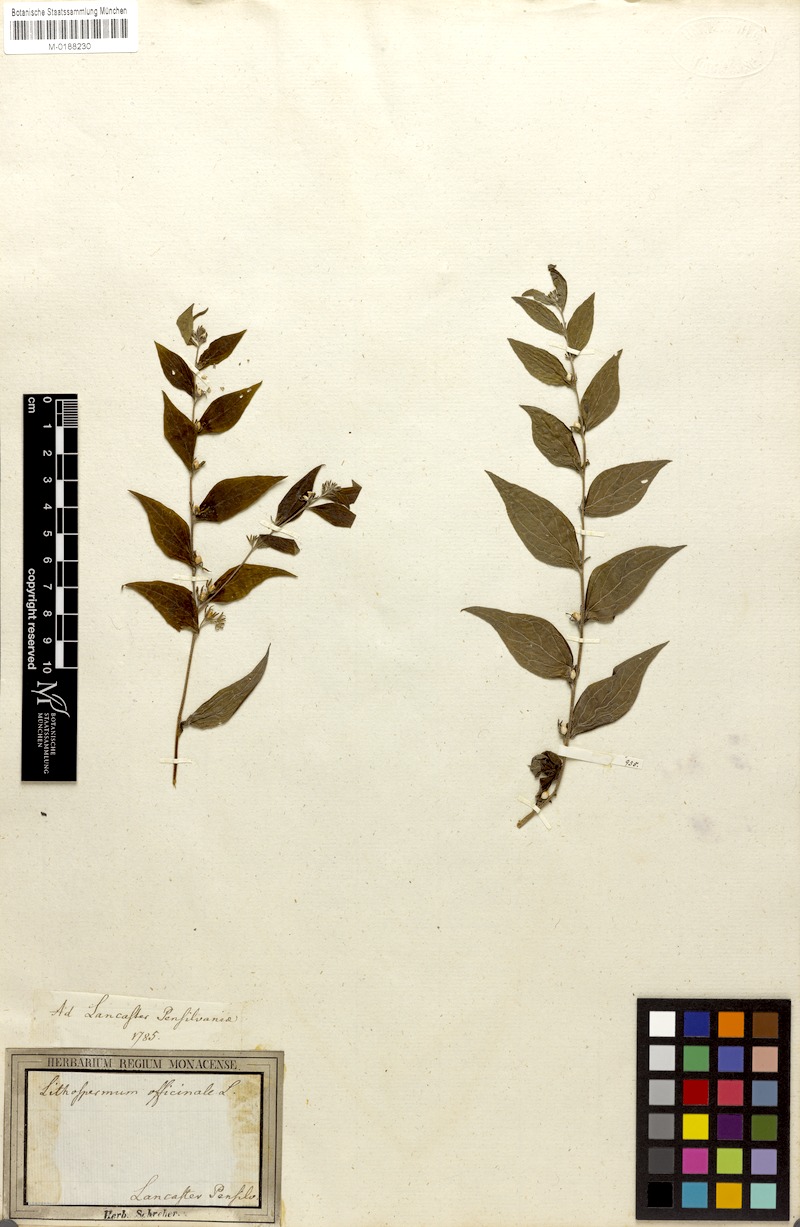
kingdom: Plantae
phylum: Tracheophyta
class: Magnoliopsida
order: Boraginales
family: Boraginaceae
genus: Lithospermum
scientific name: Lithospermum latifolium
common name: American gromwell
